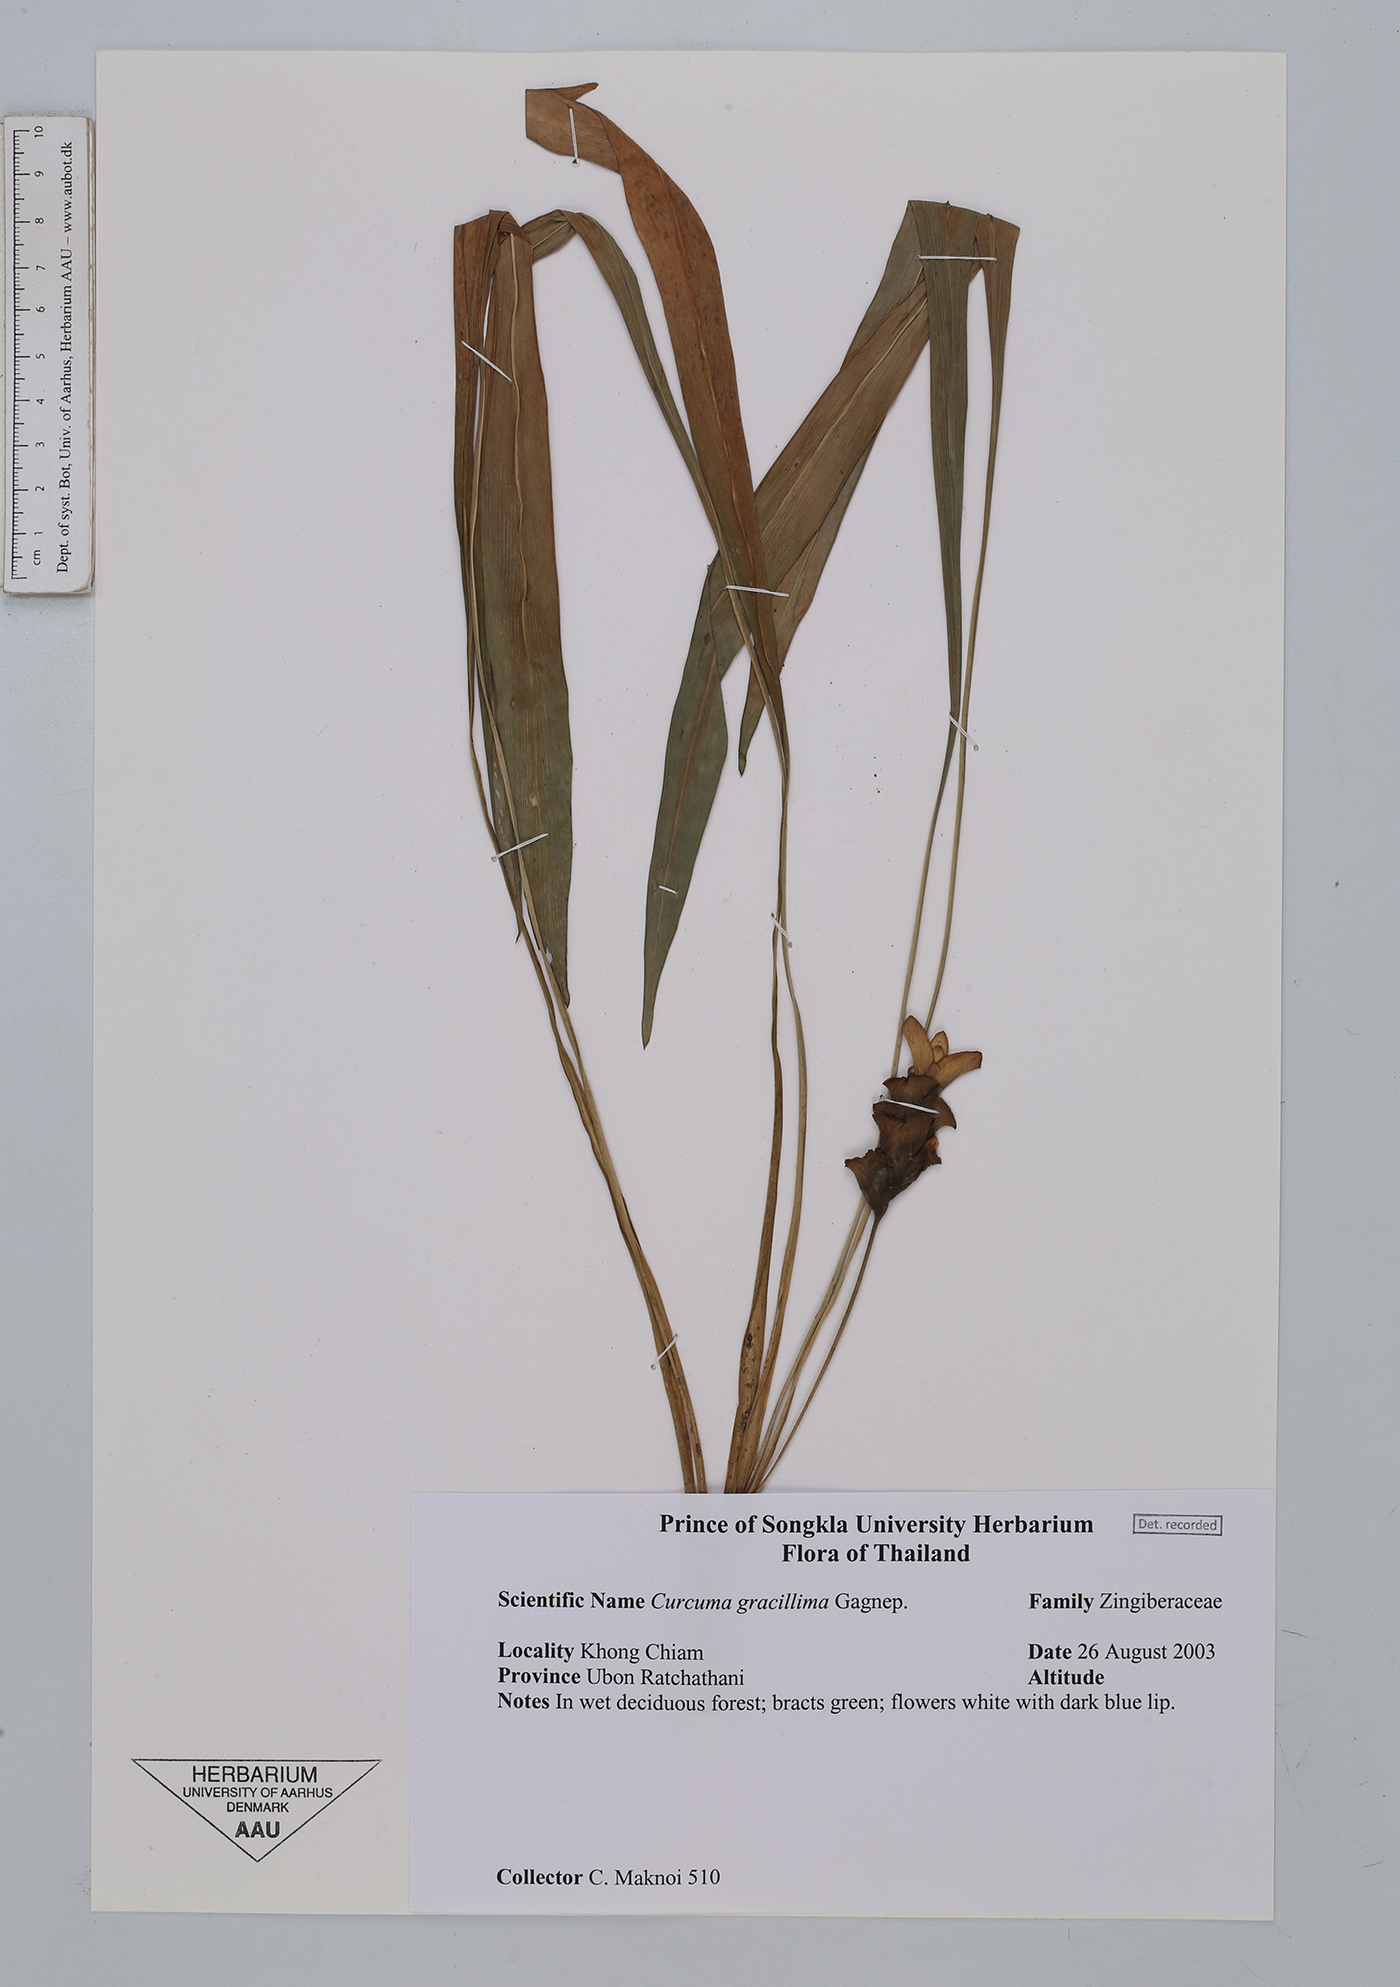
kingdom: Plantae
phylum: Tracheophyta
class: Liliopsida
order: Zingiberales
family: Zingiberaceae
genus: Curcuma
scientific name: Curcuma gracillima
